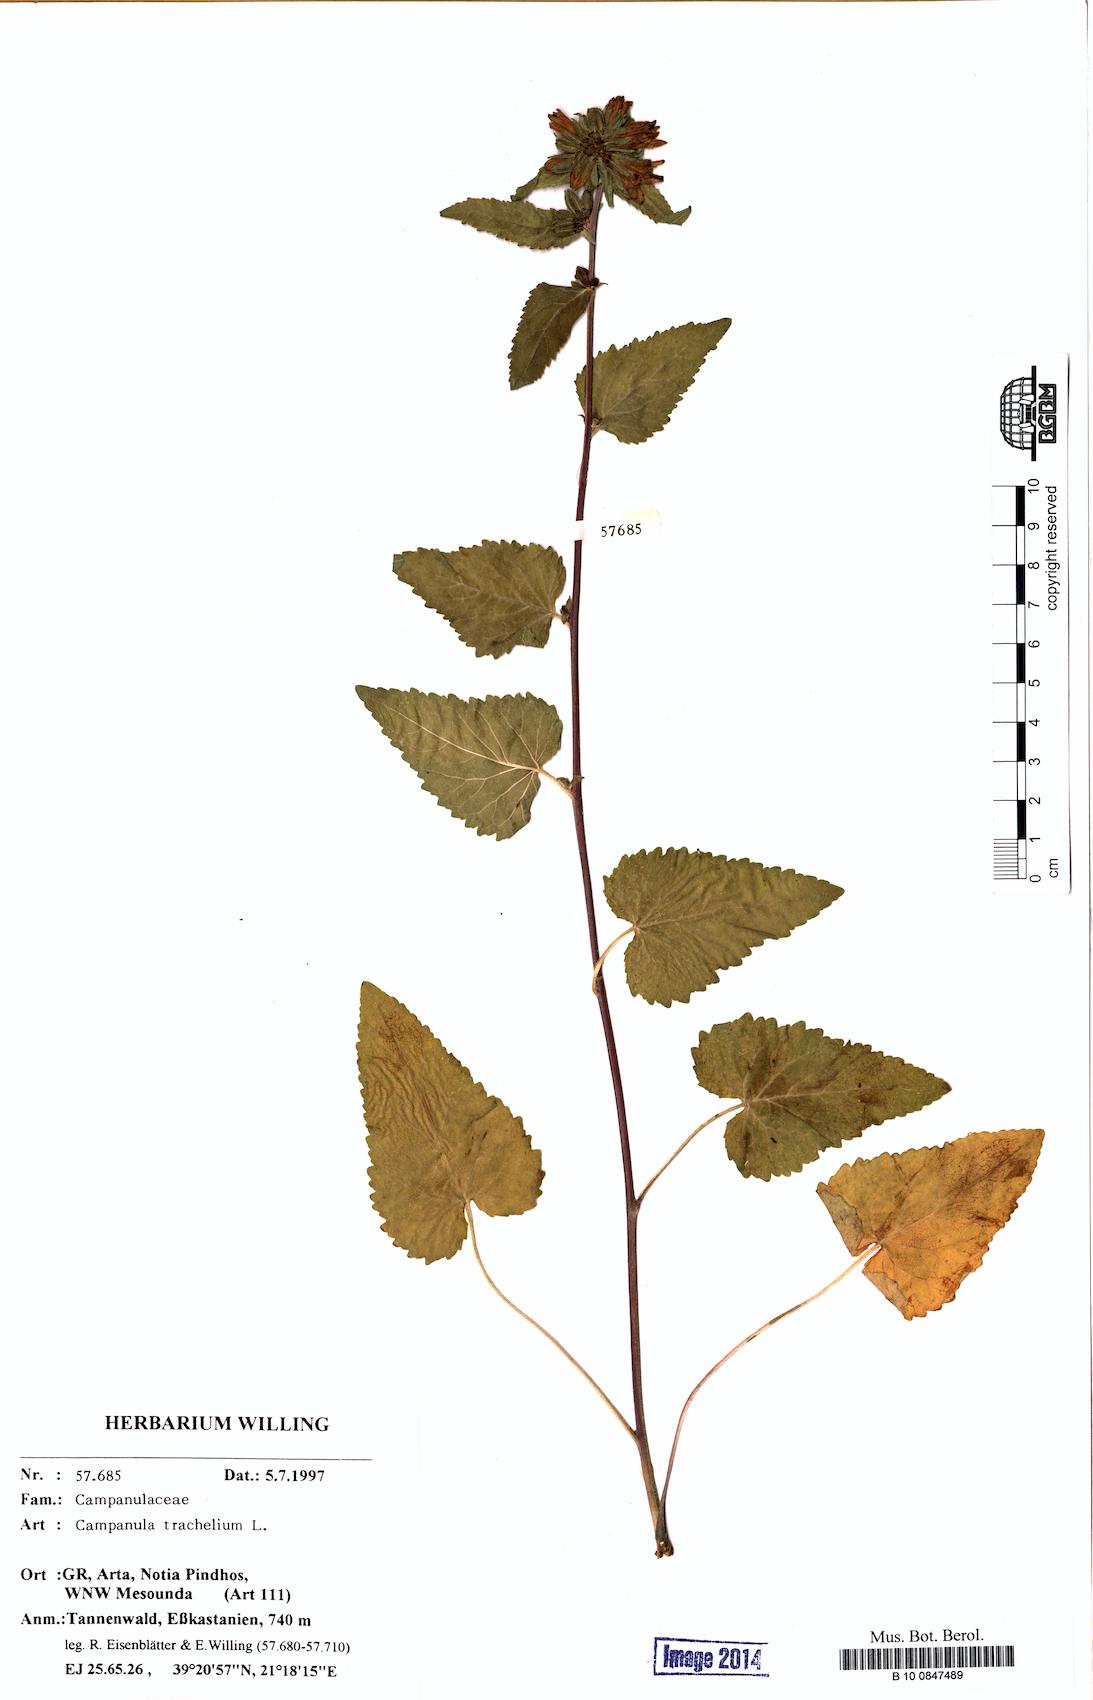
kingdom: Plantae
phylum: Tracheophyta
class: Magnoliopsida
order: Asterales
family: Campanulaceae
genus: Campanula
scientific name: Campanula trachelium
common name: Nettle-leaved bellflower
